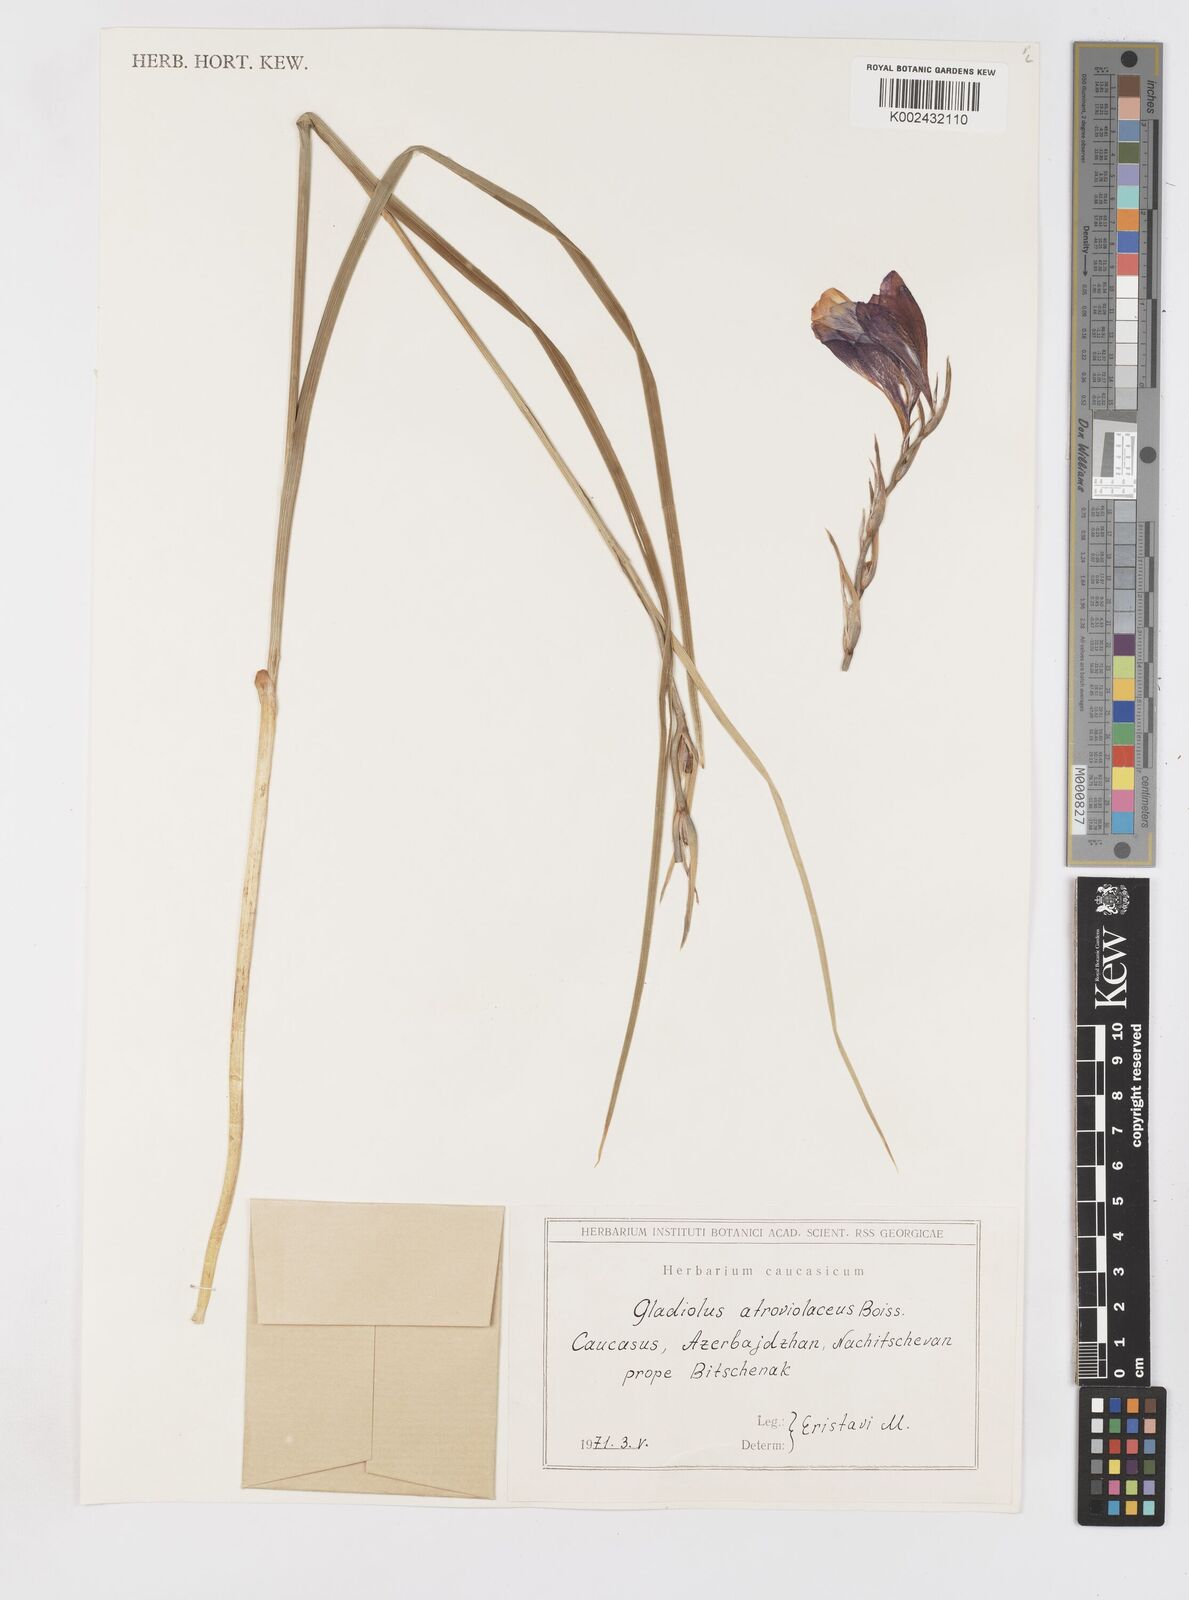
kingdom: Plantae
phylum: Tracheophyta
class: Liliopsida
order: Asparagales
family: Iridaceae
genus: Gladiolus
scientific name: Gladiolus atroviolaceus
